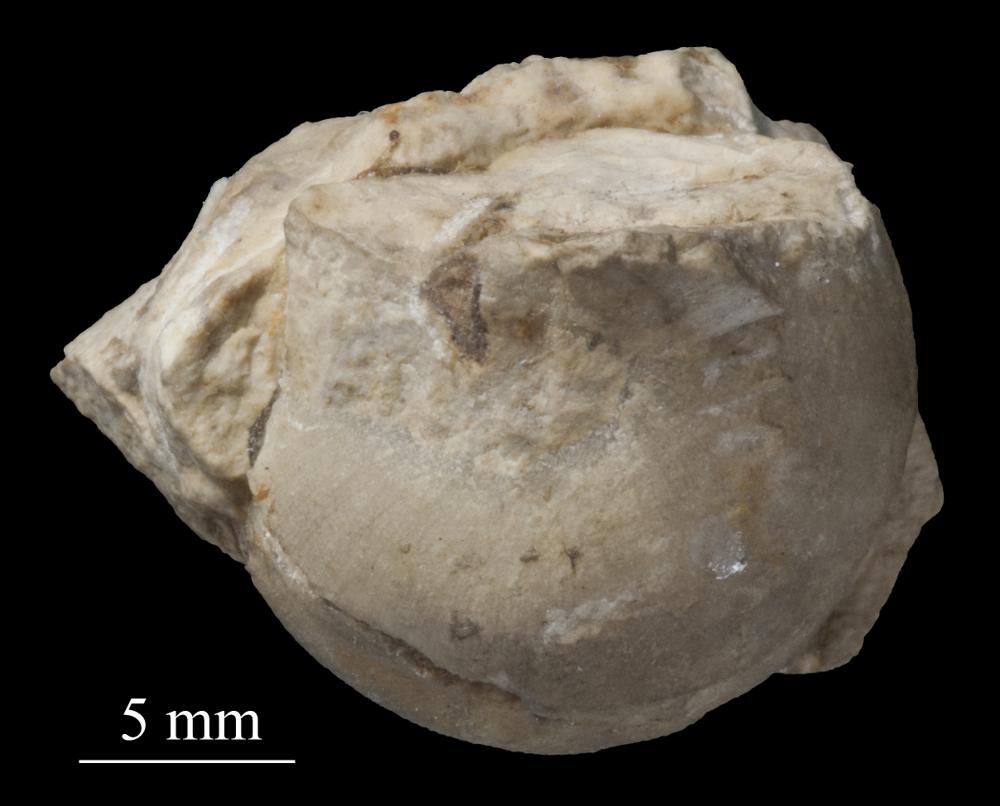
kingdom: Animalia
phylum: Mollusca
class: Gastropoda
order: Littorinimorpha
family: Purpuroideidae
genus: Angularia
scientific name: Angularia
